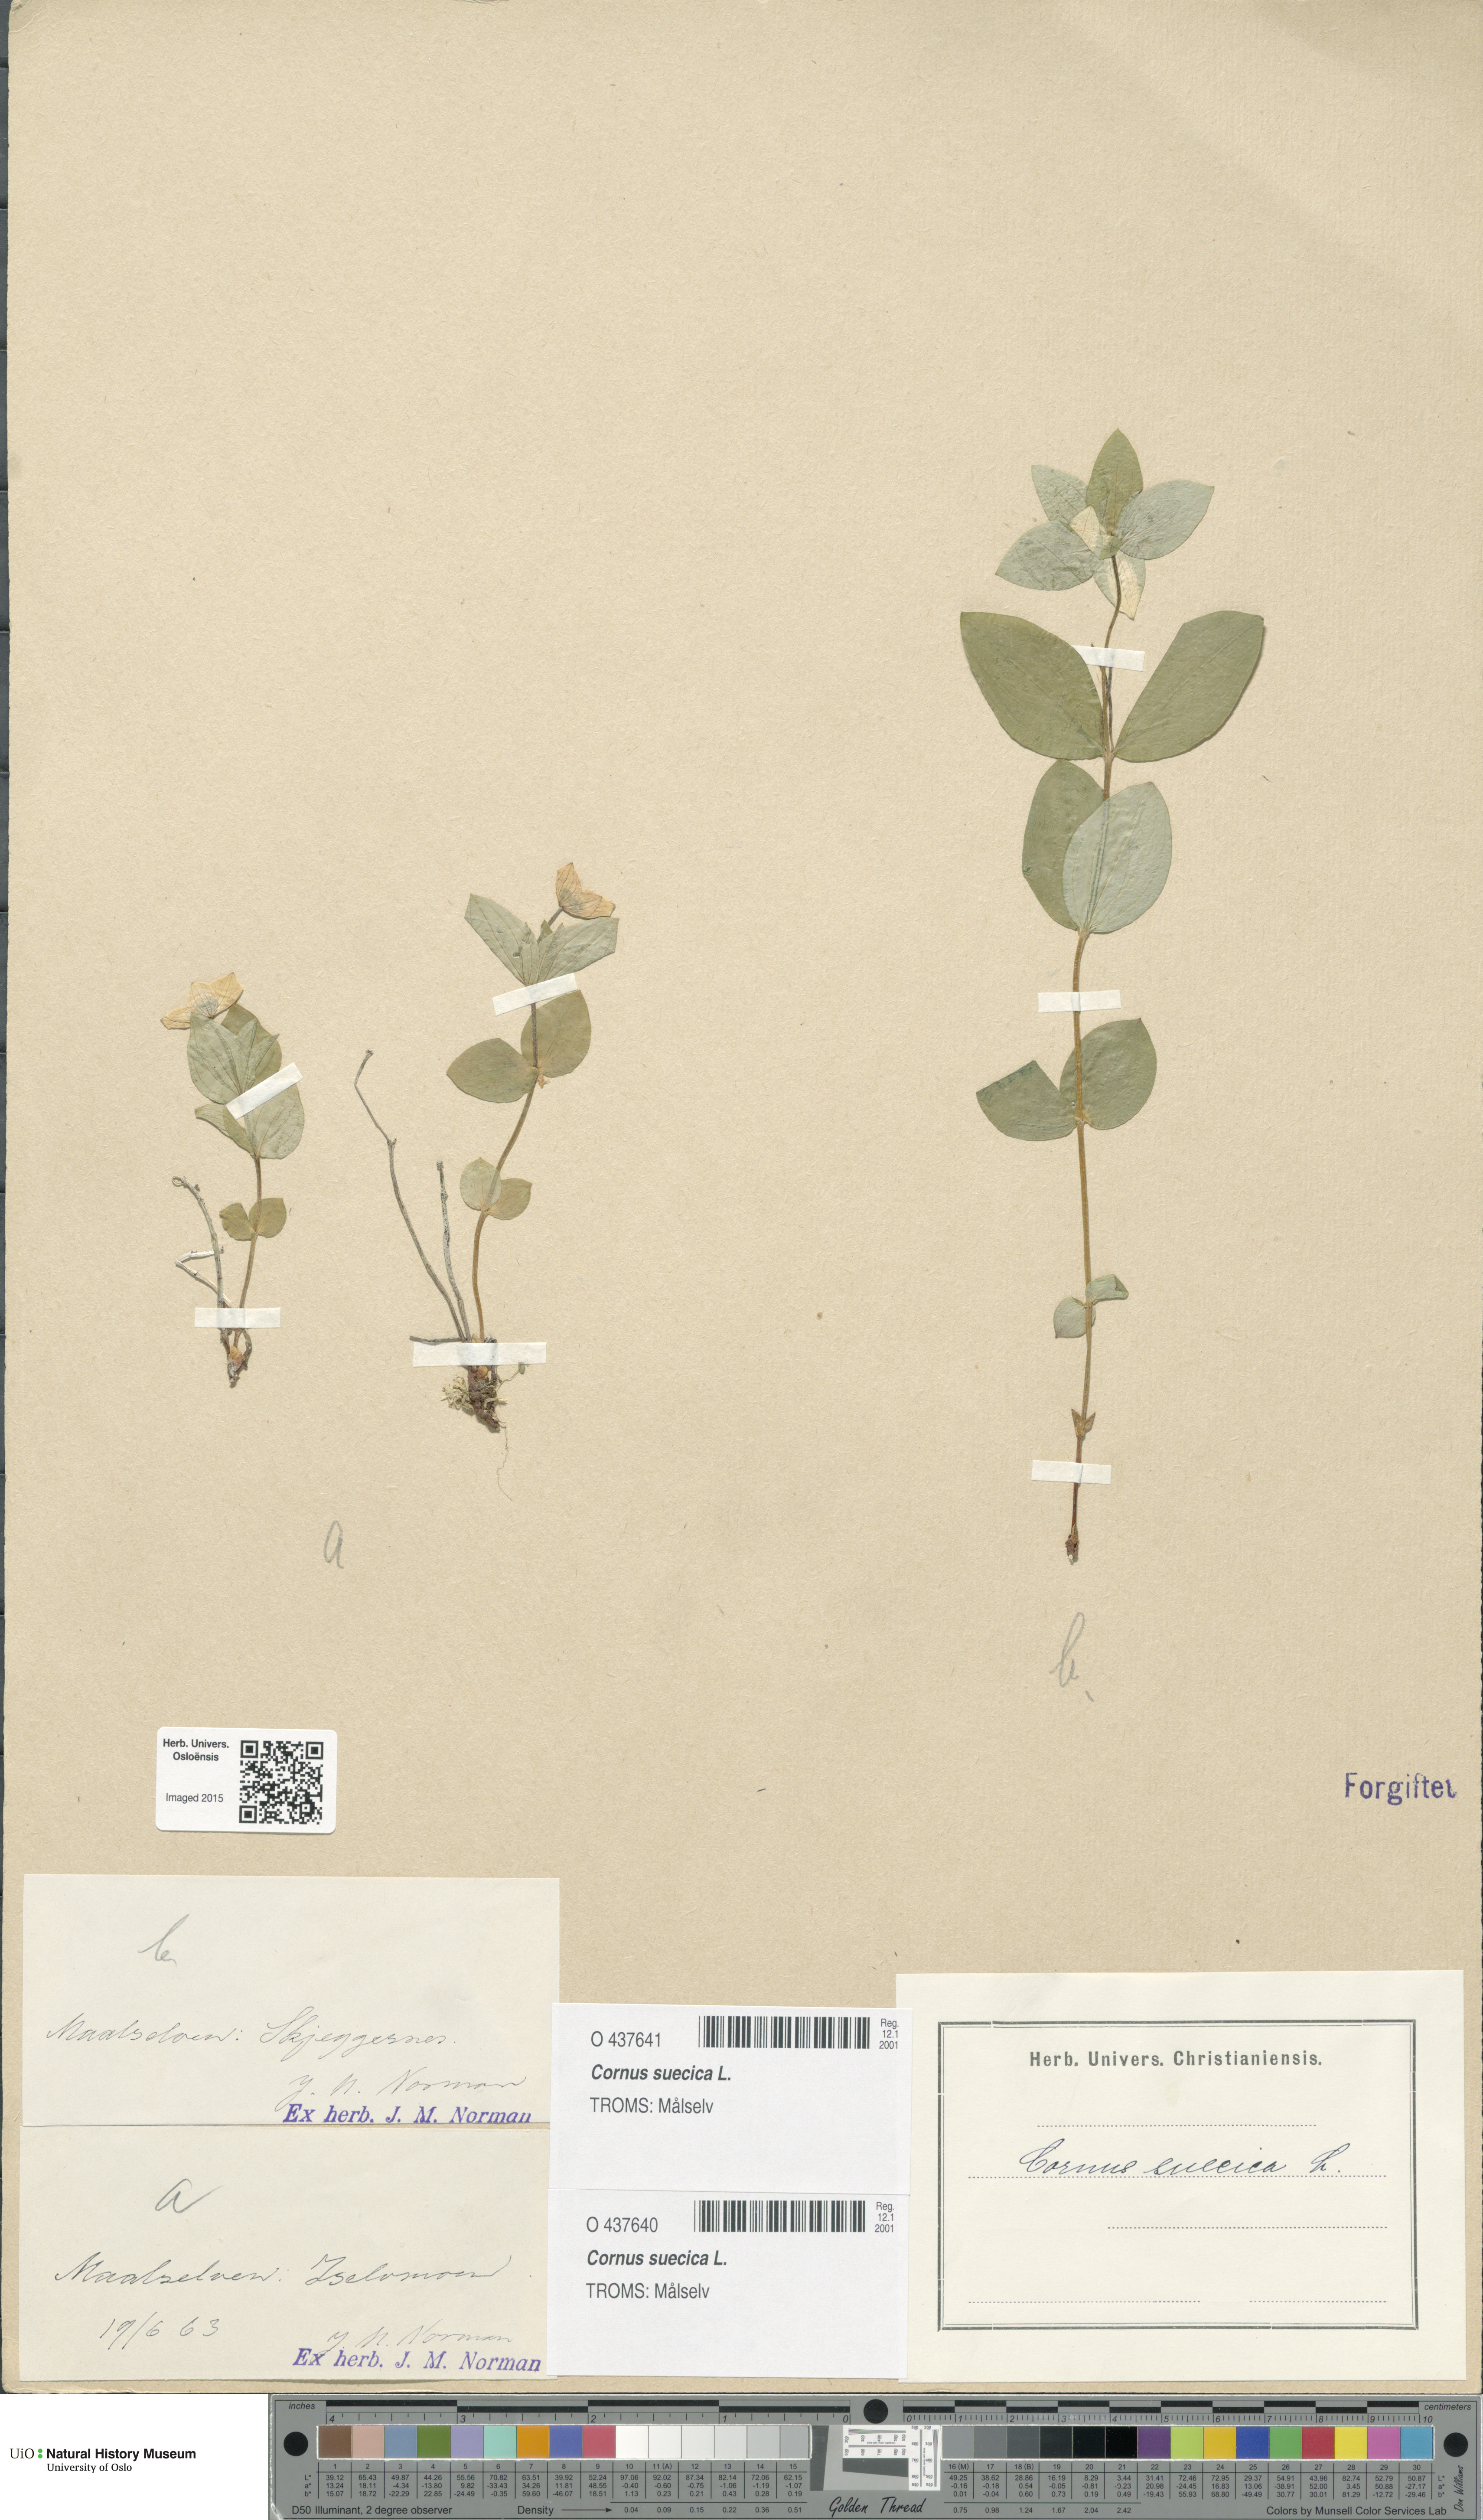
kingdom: Plantae
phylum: Tracheophyta
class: Magnoliopsida
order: Cornales
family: Cornaceae
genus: Cornus
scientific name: Cornus suecica
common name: Dwarf cornel
